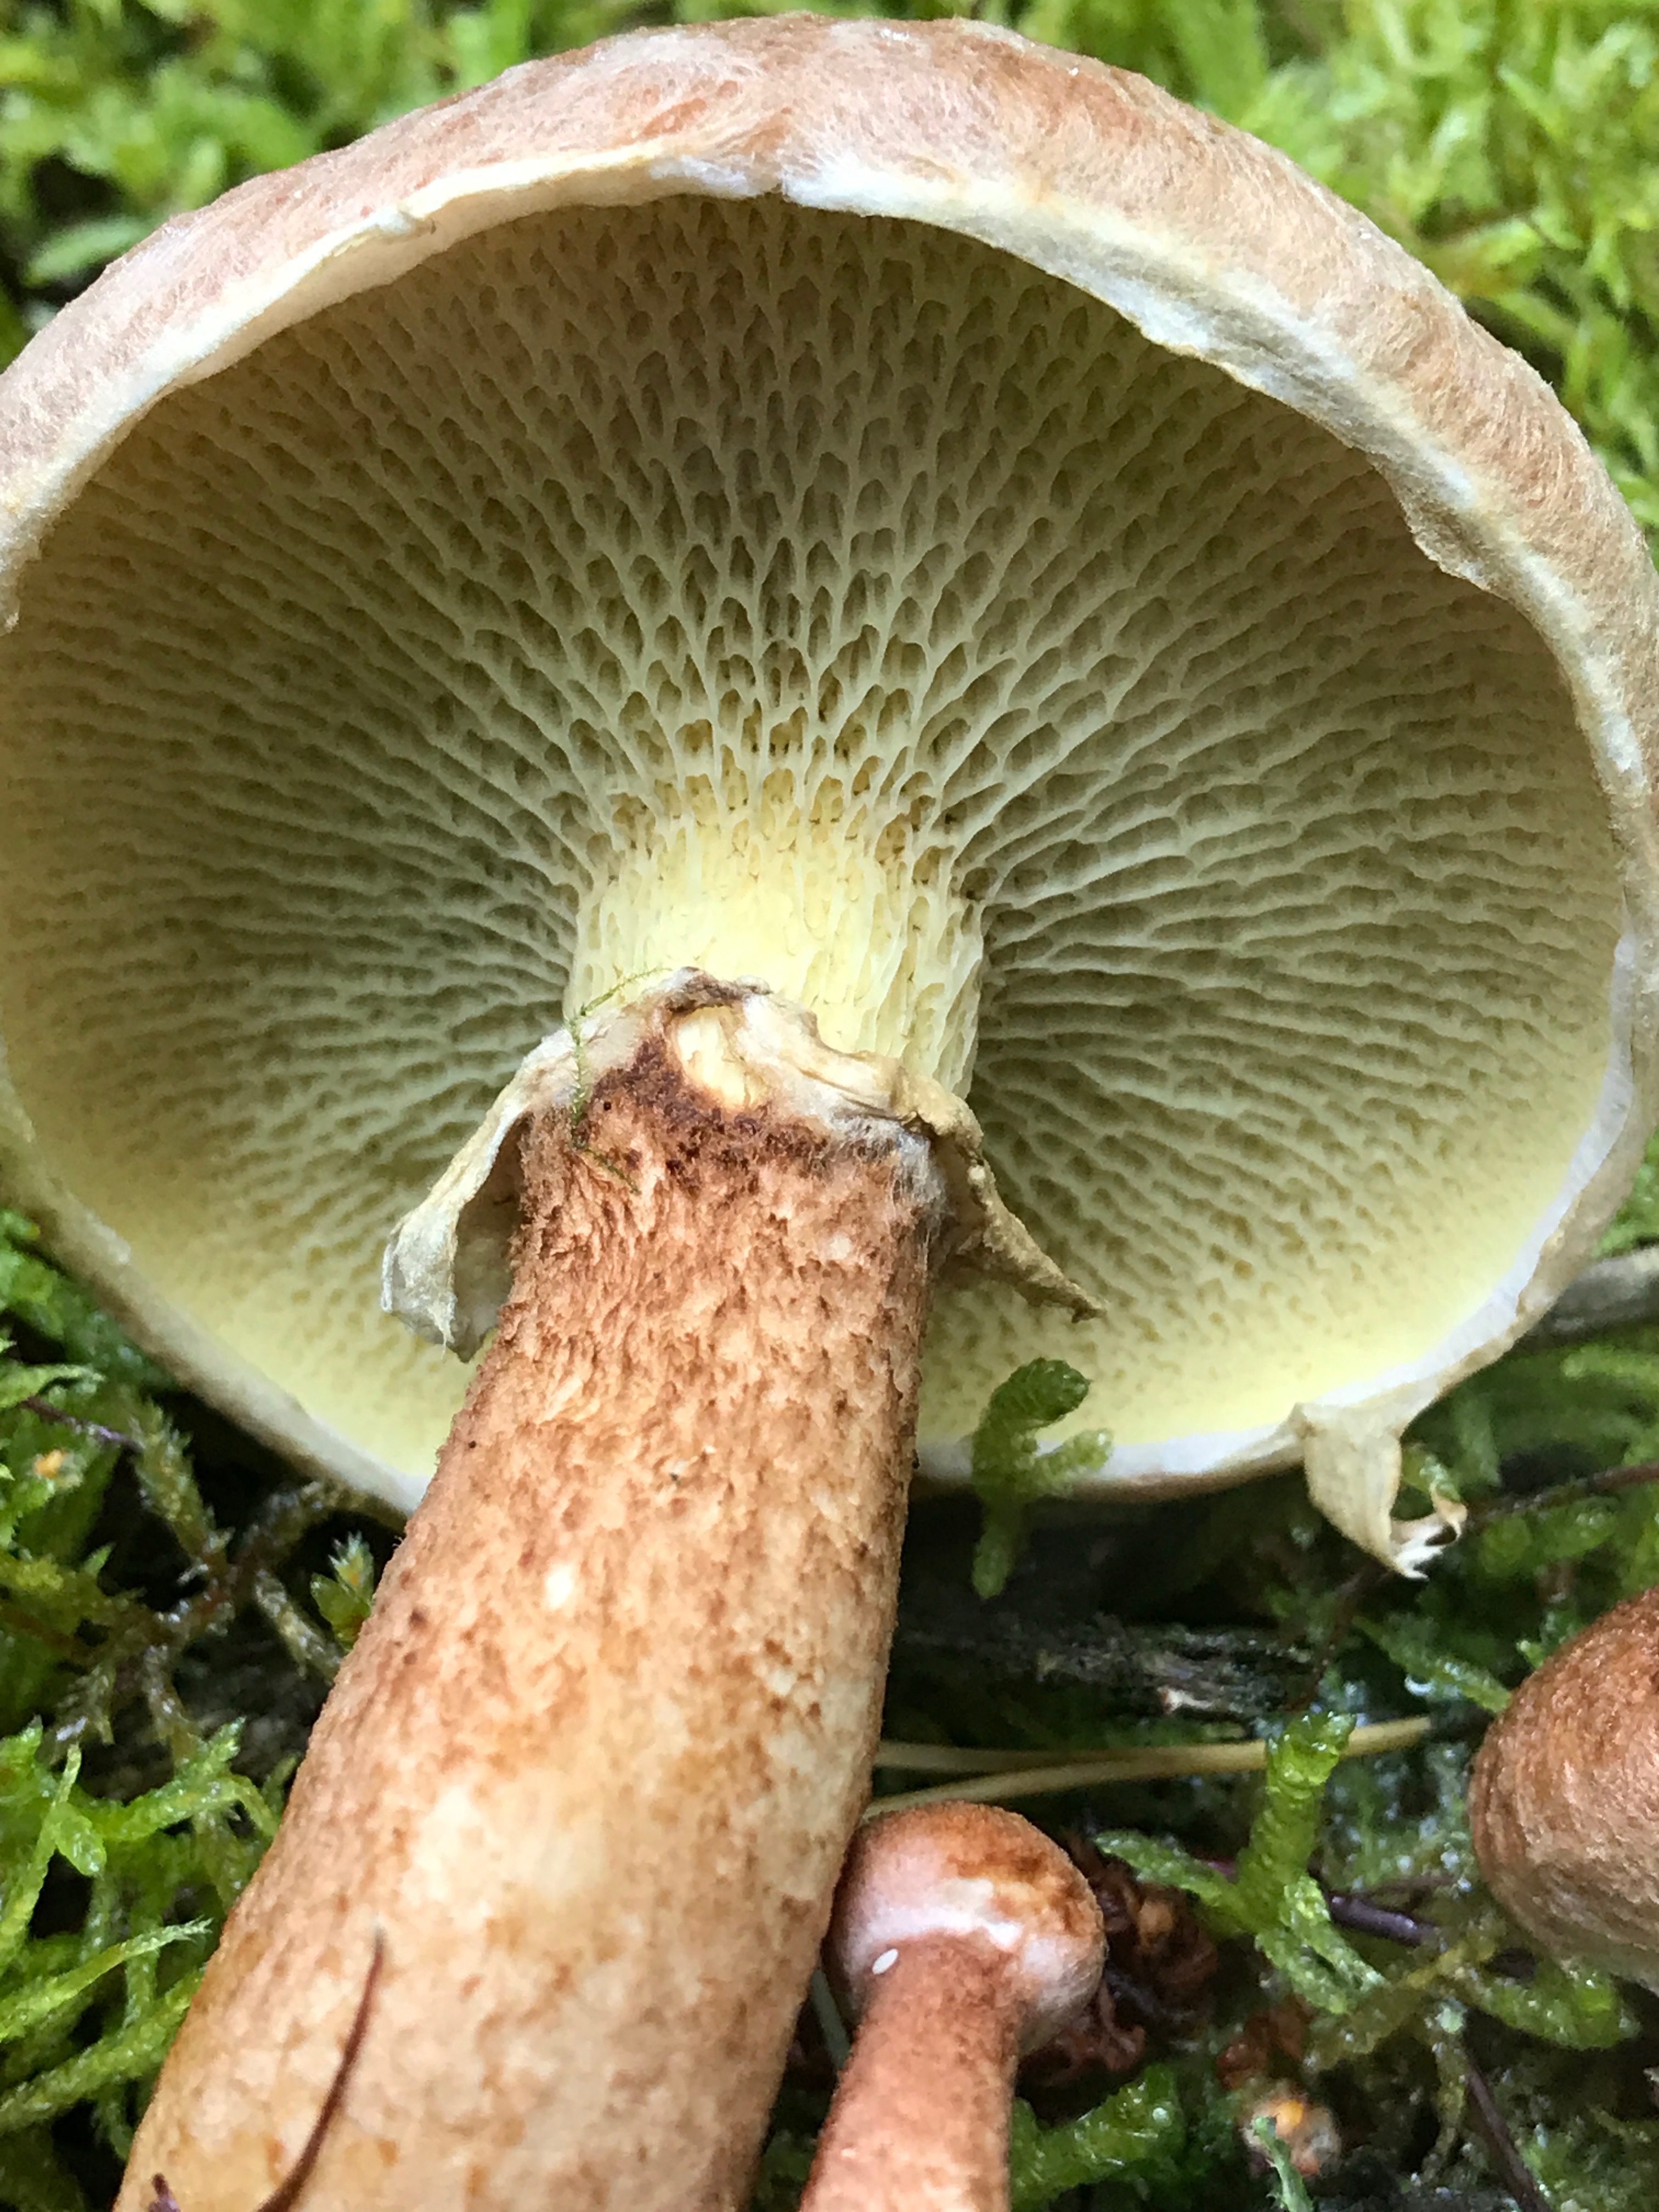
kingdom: Fungi
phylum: Basidiomycota
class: Agaricomycetes
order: Boletales
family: Suillaceae
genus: Suillus
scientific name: Suillus cavipes
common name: hulstokket slimrørhat
